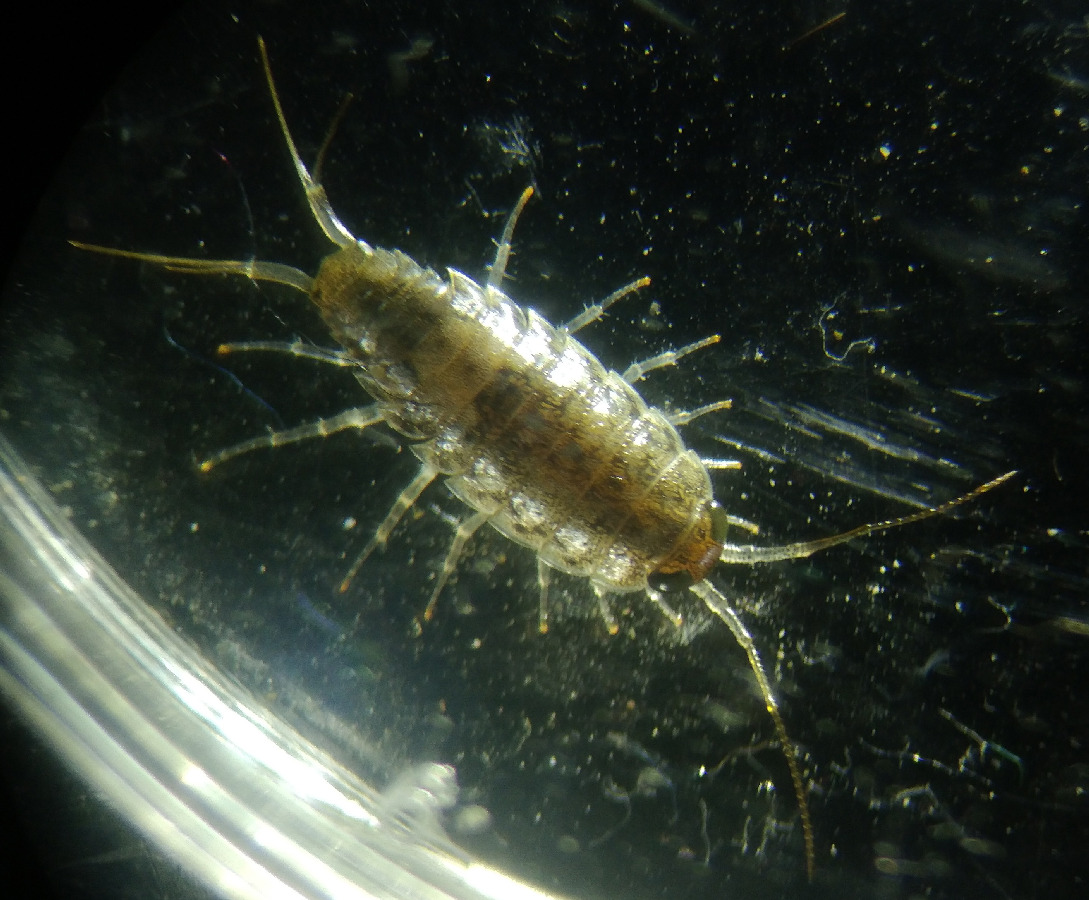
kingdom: Animalia
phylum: Arthropoda
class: Malacostraca
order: Isopoda
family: Ligiidae
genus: Ligia
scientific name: Ligia italica
